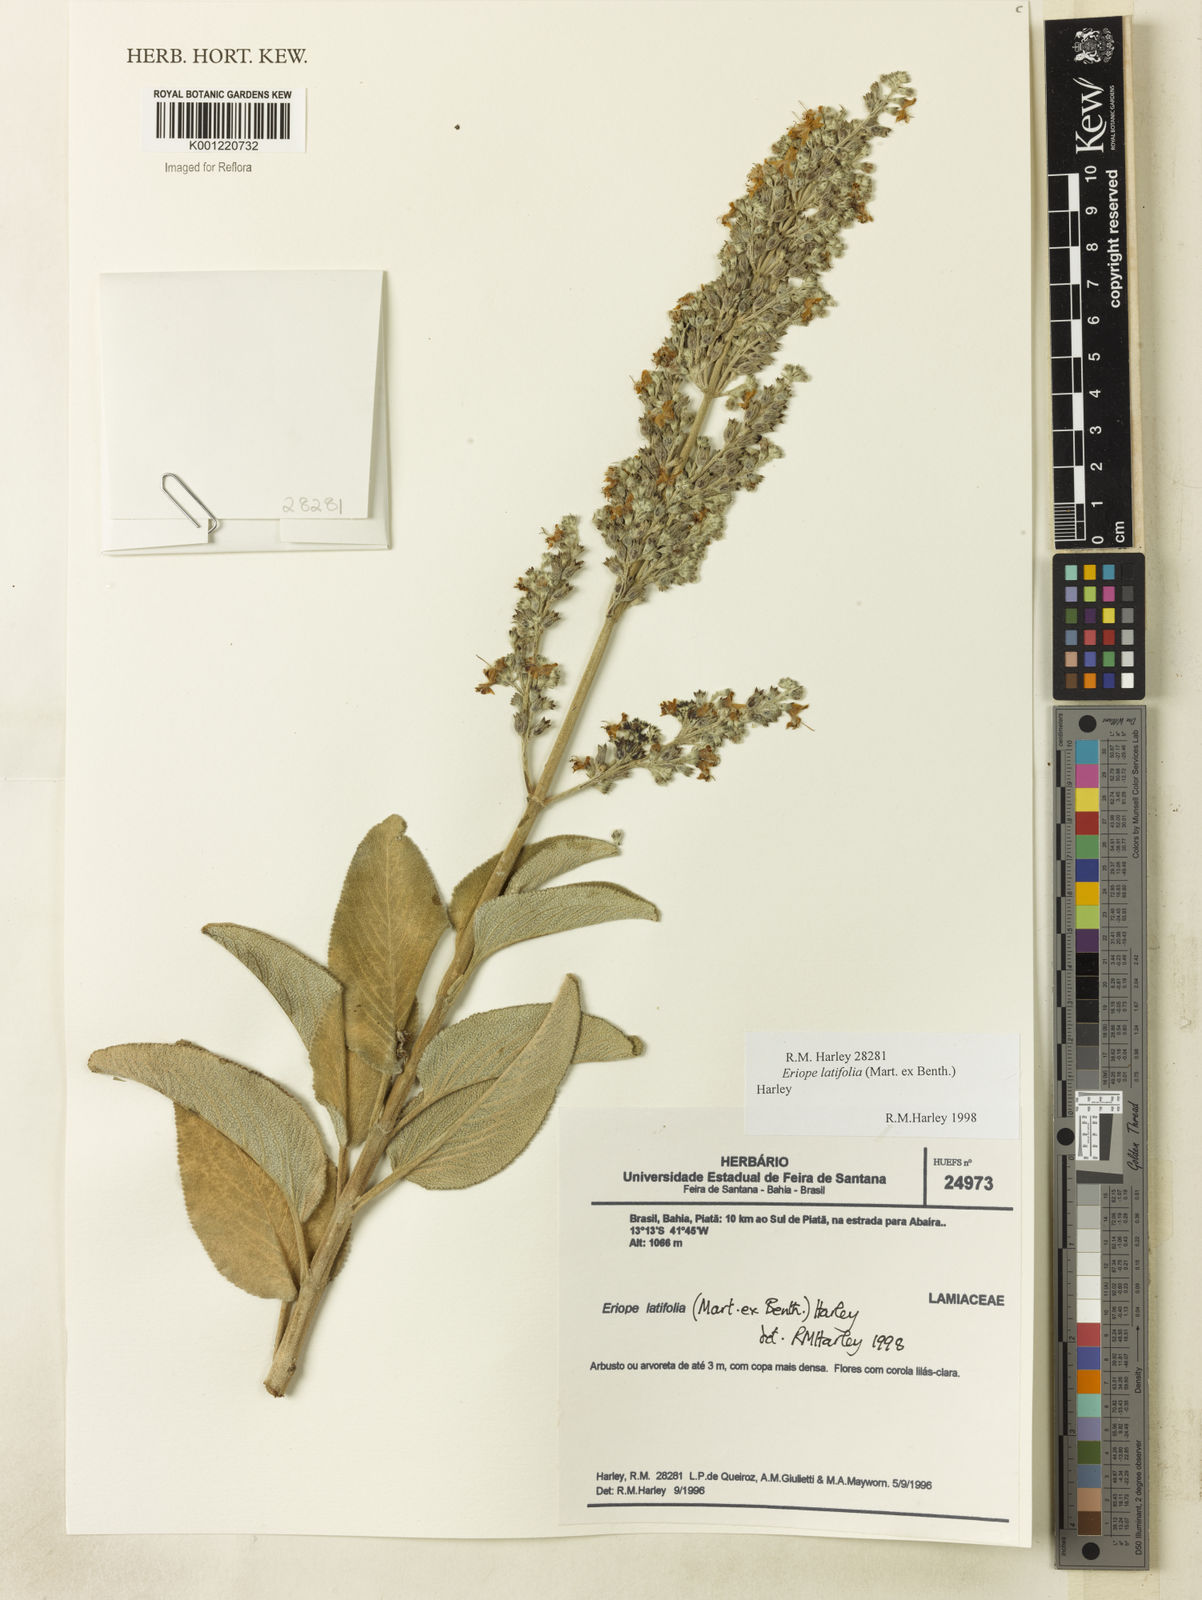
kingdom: Plantae
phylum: Tracheophyta
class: Magnoliopsida
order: Lamiales
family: Lamiaceae
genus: Eriope
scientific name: Eriope latifolia
